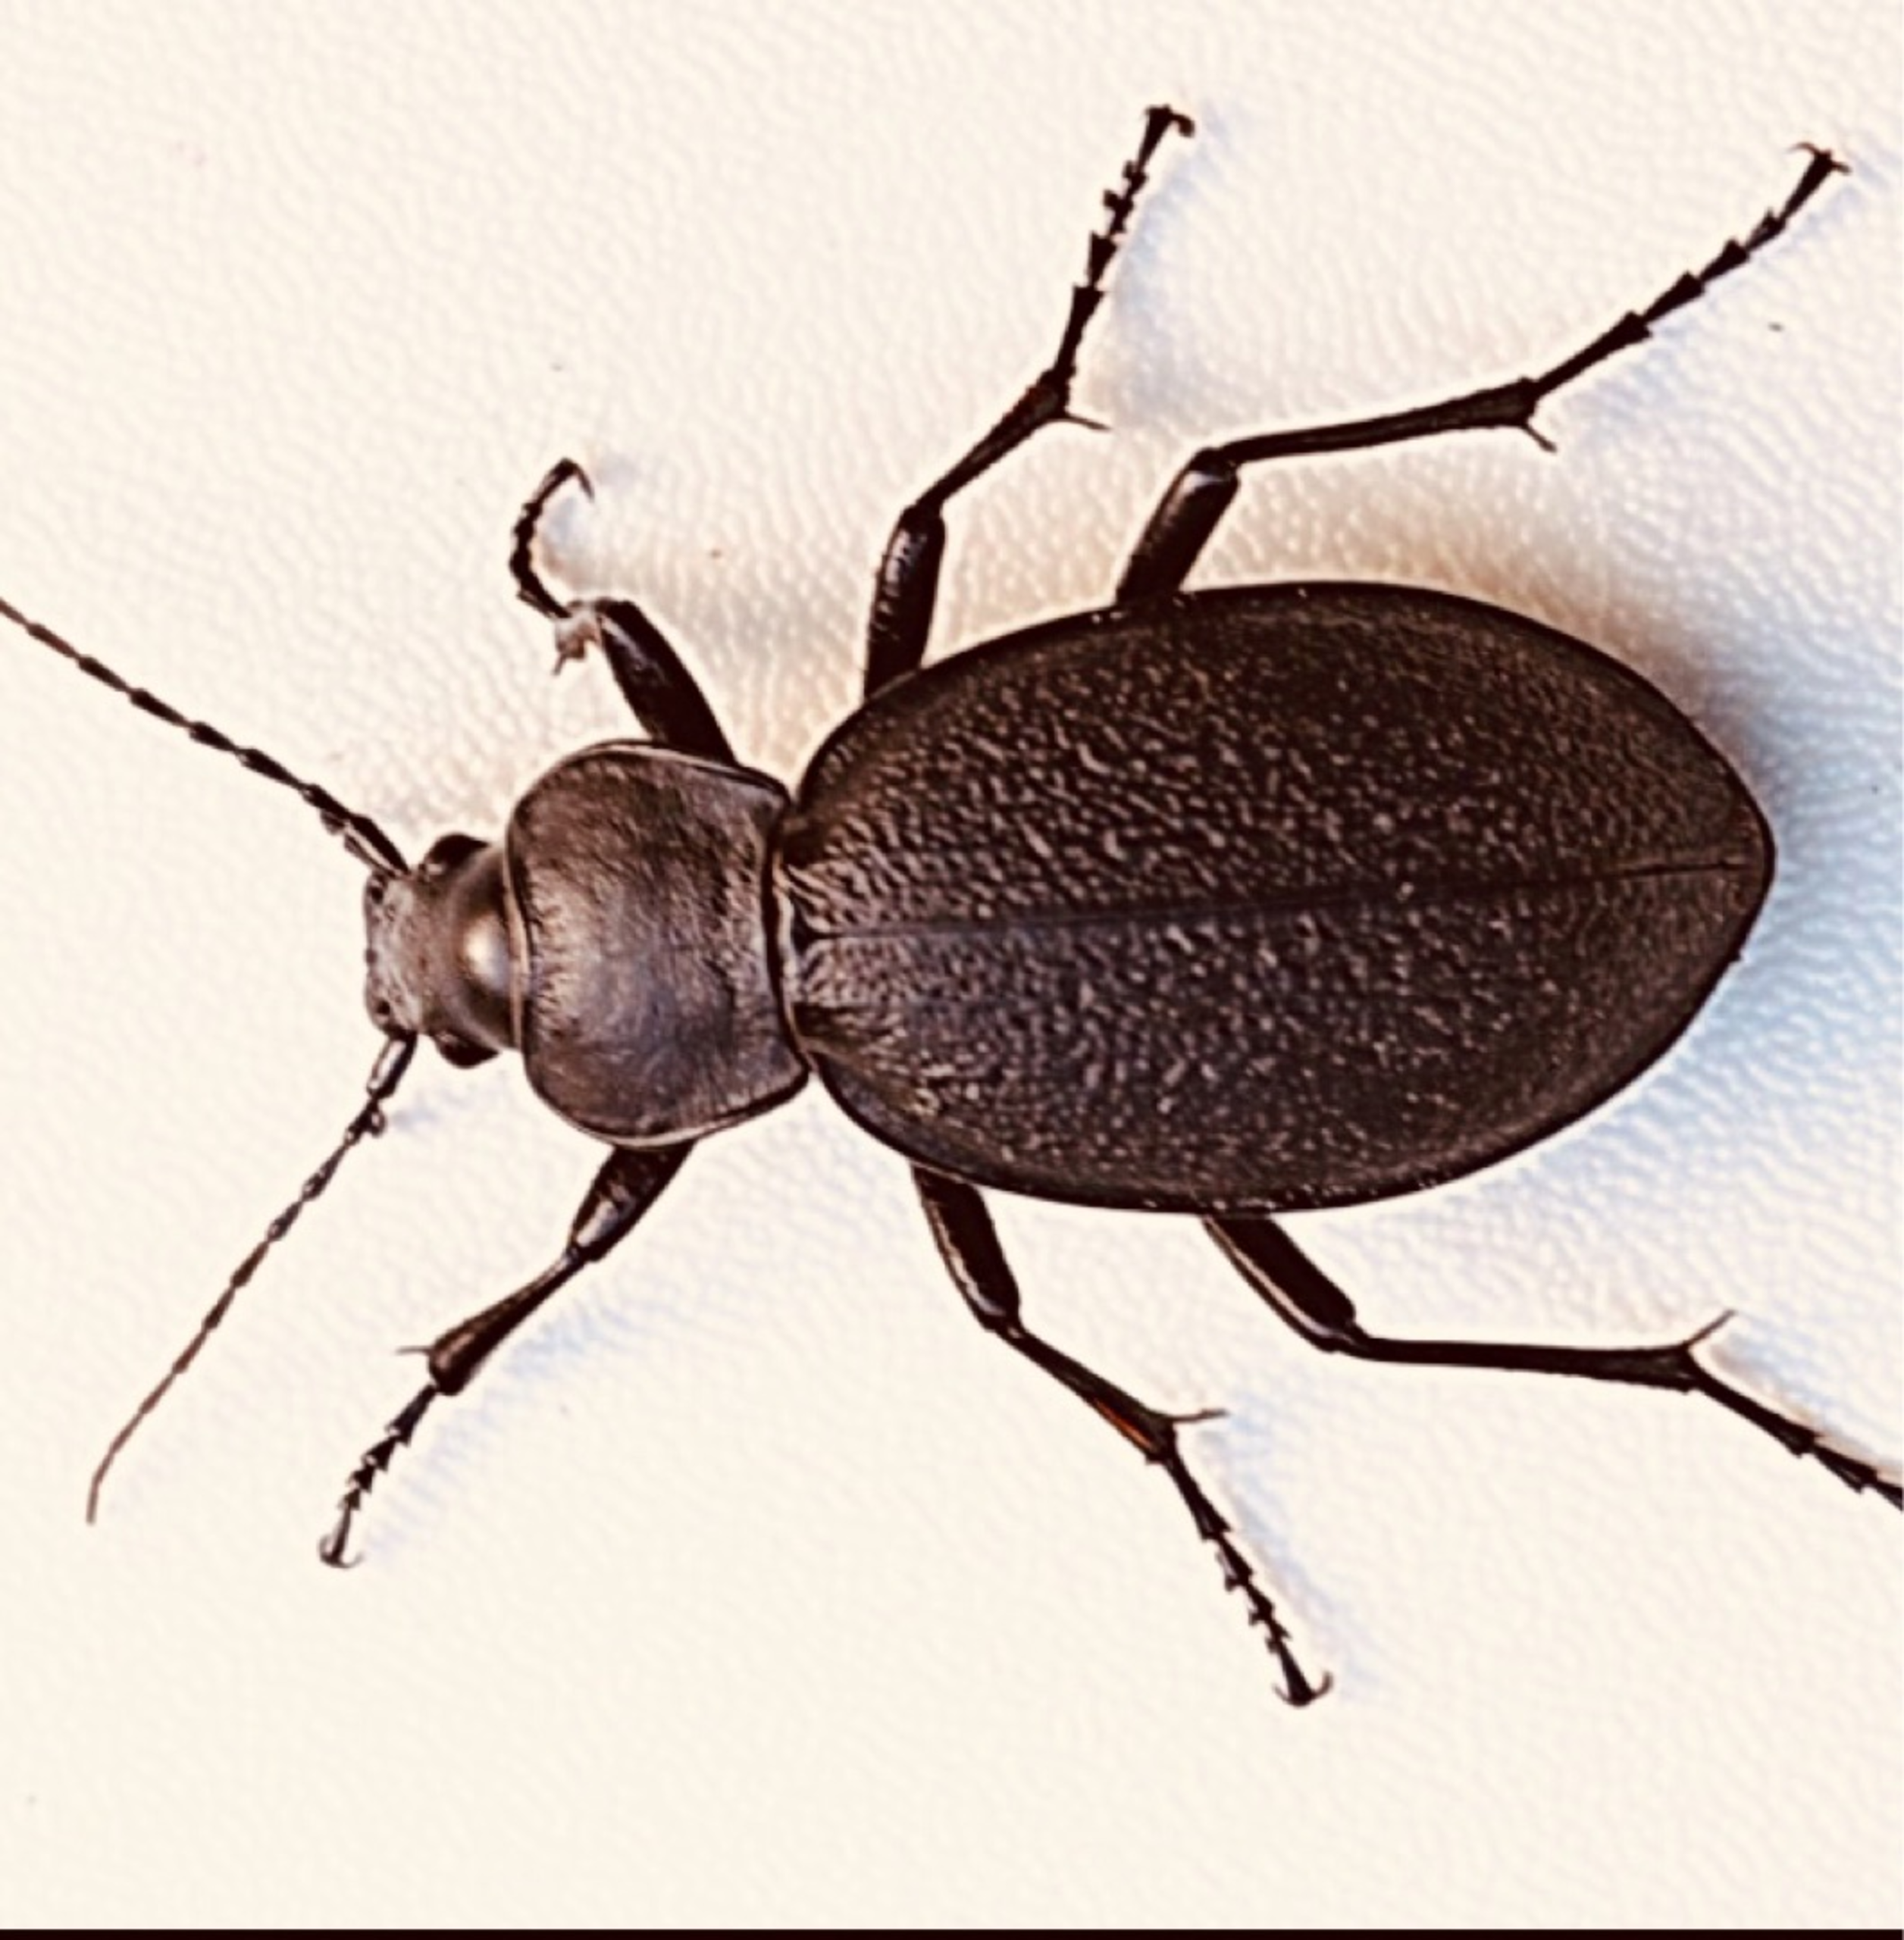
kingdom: Animalia
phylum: Arthropoda
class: Insecta
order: Coleoptera
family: Carabidae
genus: Carabus
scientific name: Carabus coriaceus
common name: Læderløber
